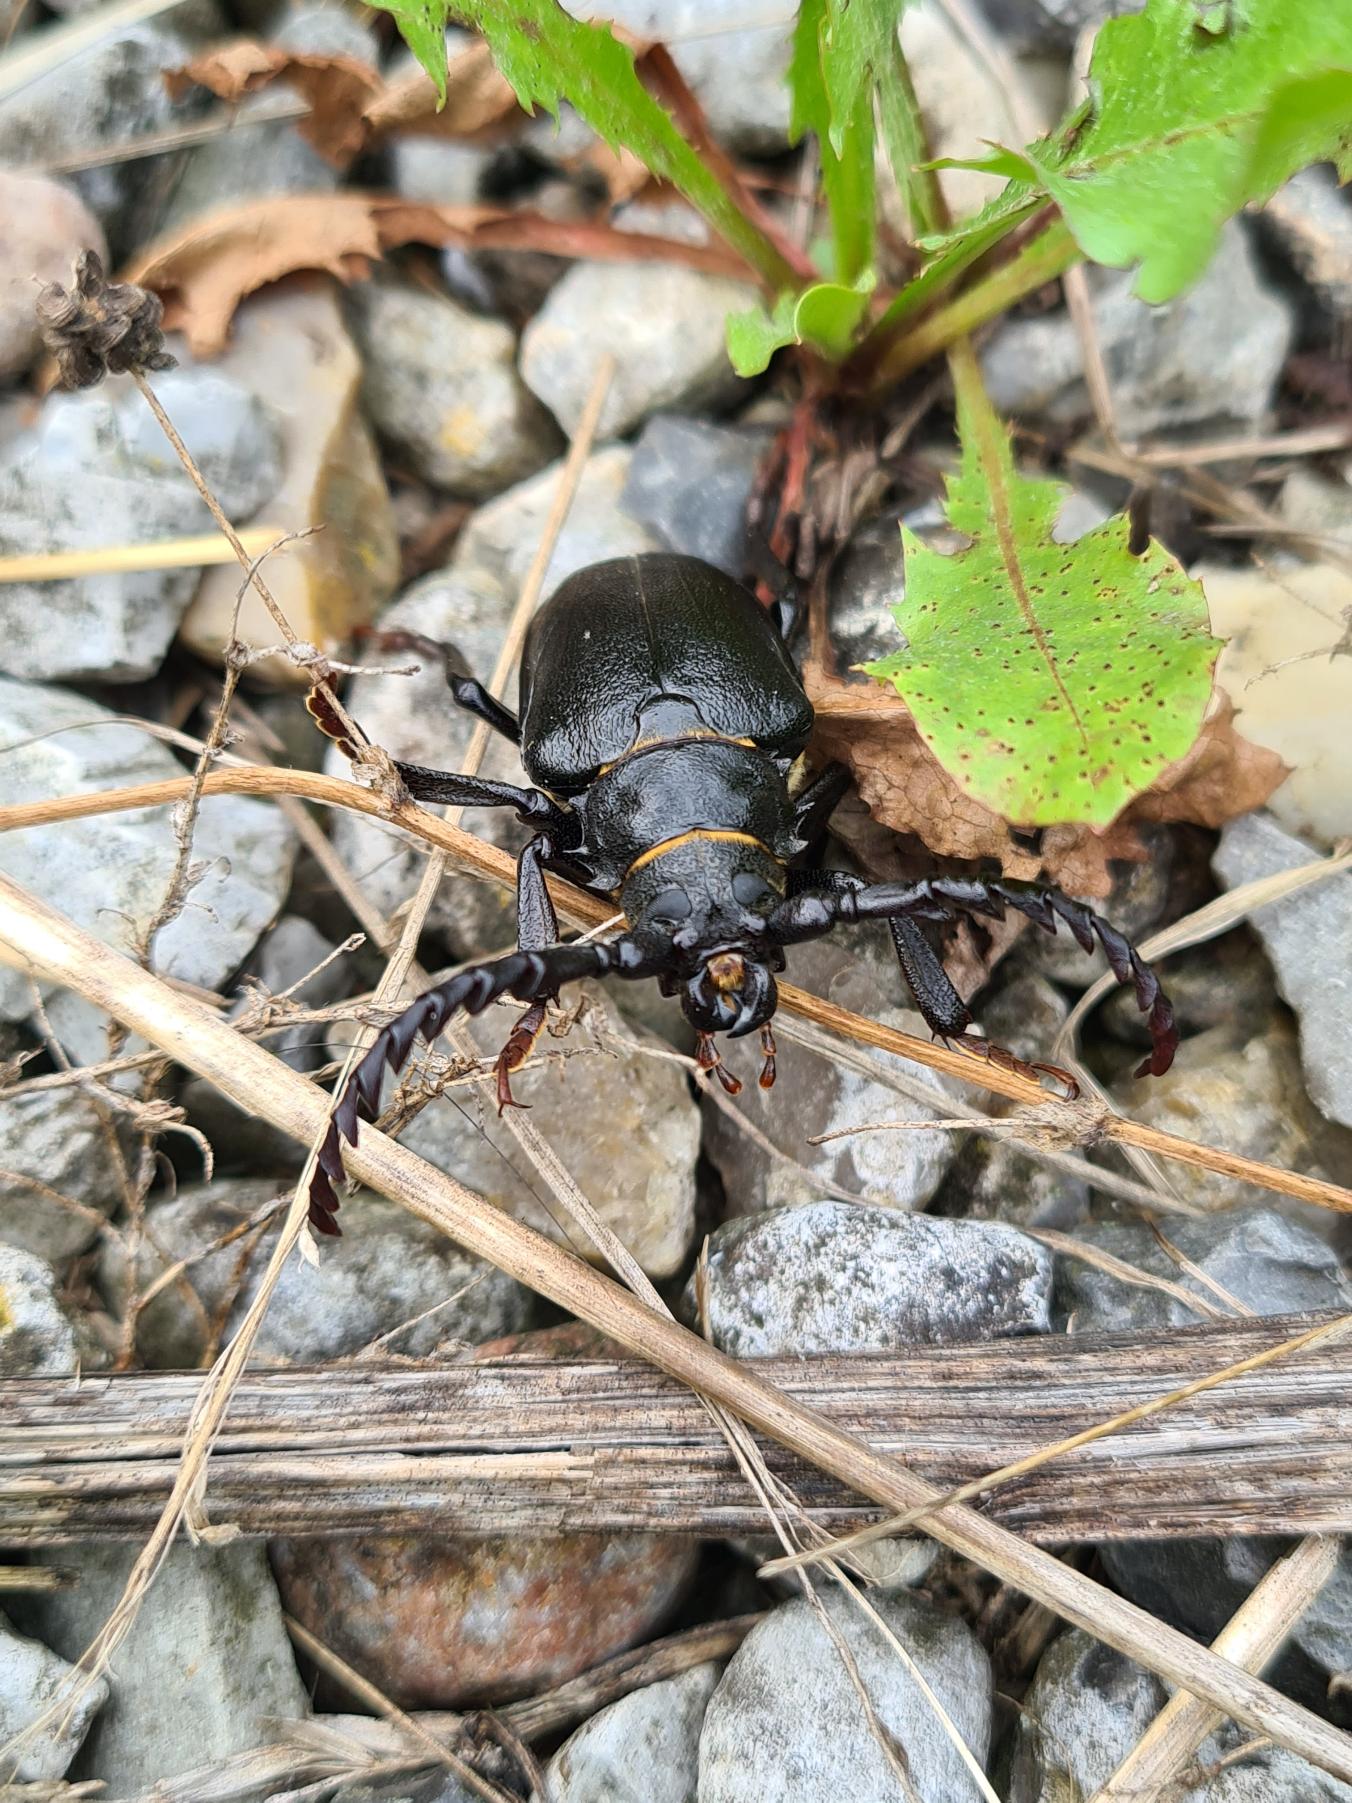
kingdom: Animalia
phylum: Arthropoda
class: Insecta
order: Coleoptera
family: Cerambycidae
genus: Prionus
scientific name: Prionus coriarius
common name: Garver
